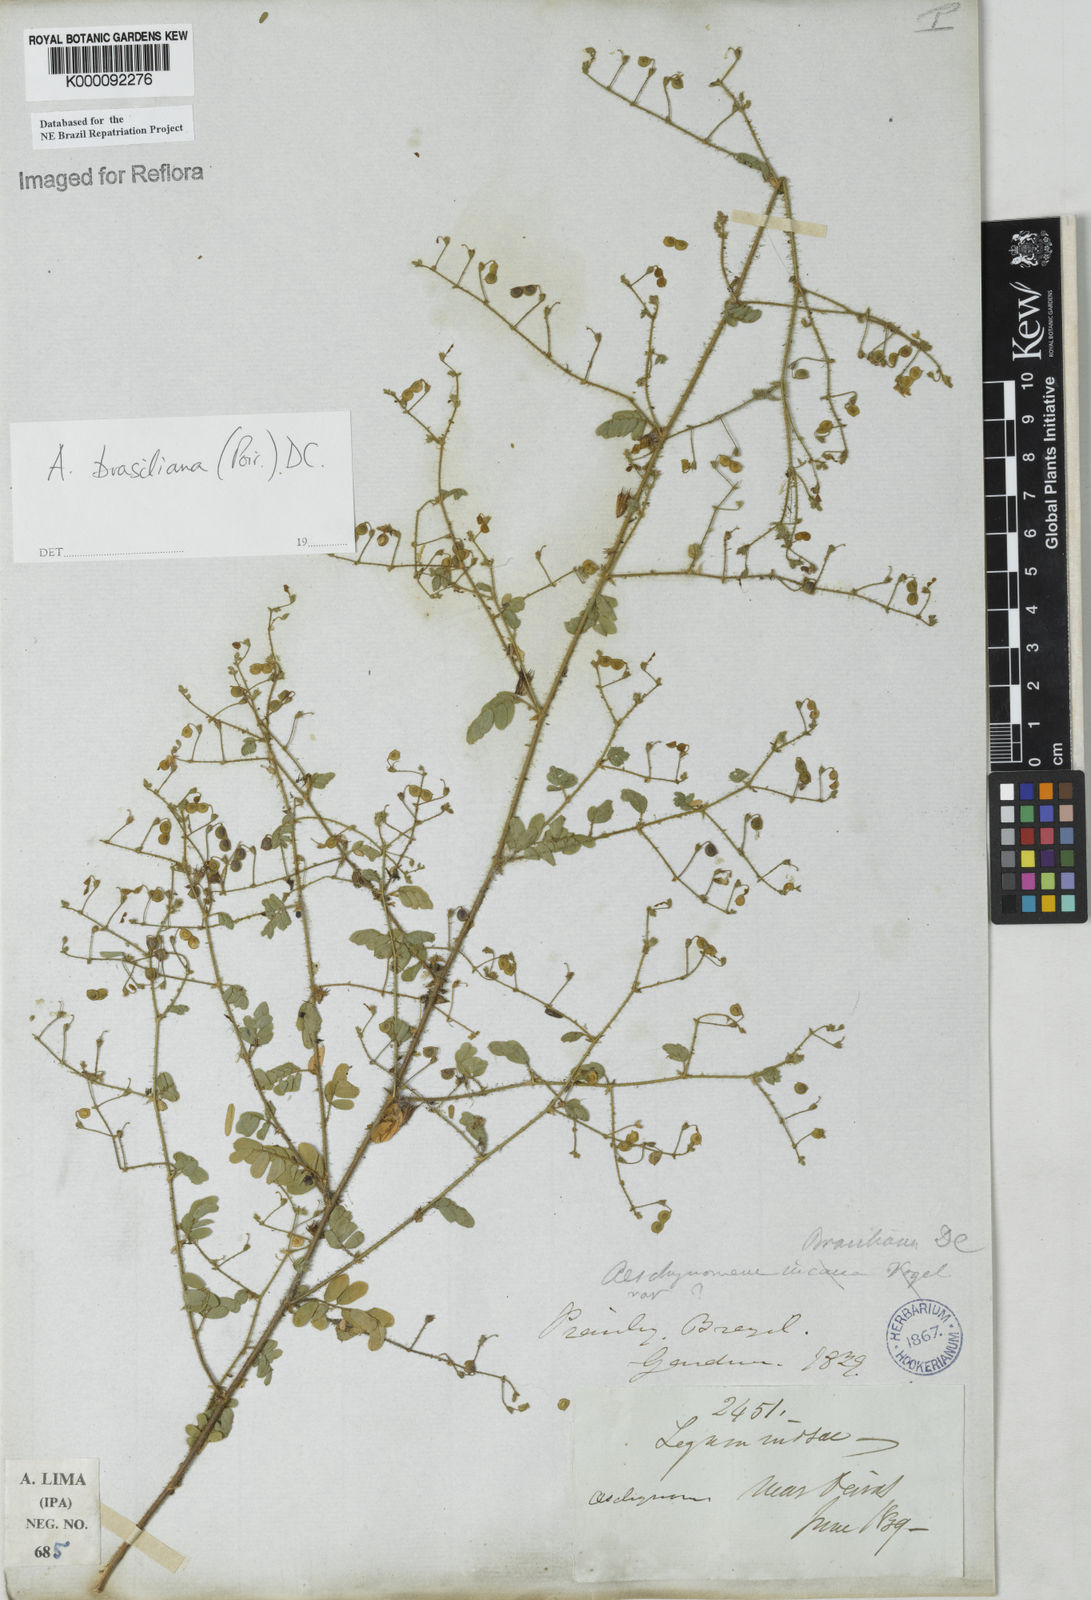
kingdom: Plantae
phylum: Tracheophyta
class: Magnoliopsida
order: Fabales
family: Fabaceae
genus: Ctenodon
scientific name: Ctenodon brasilianus
